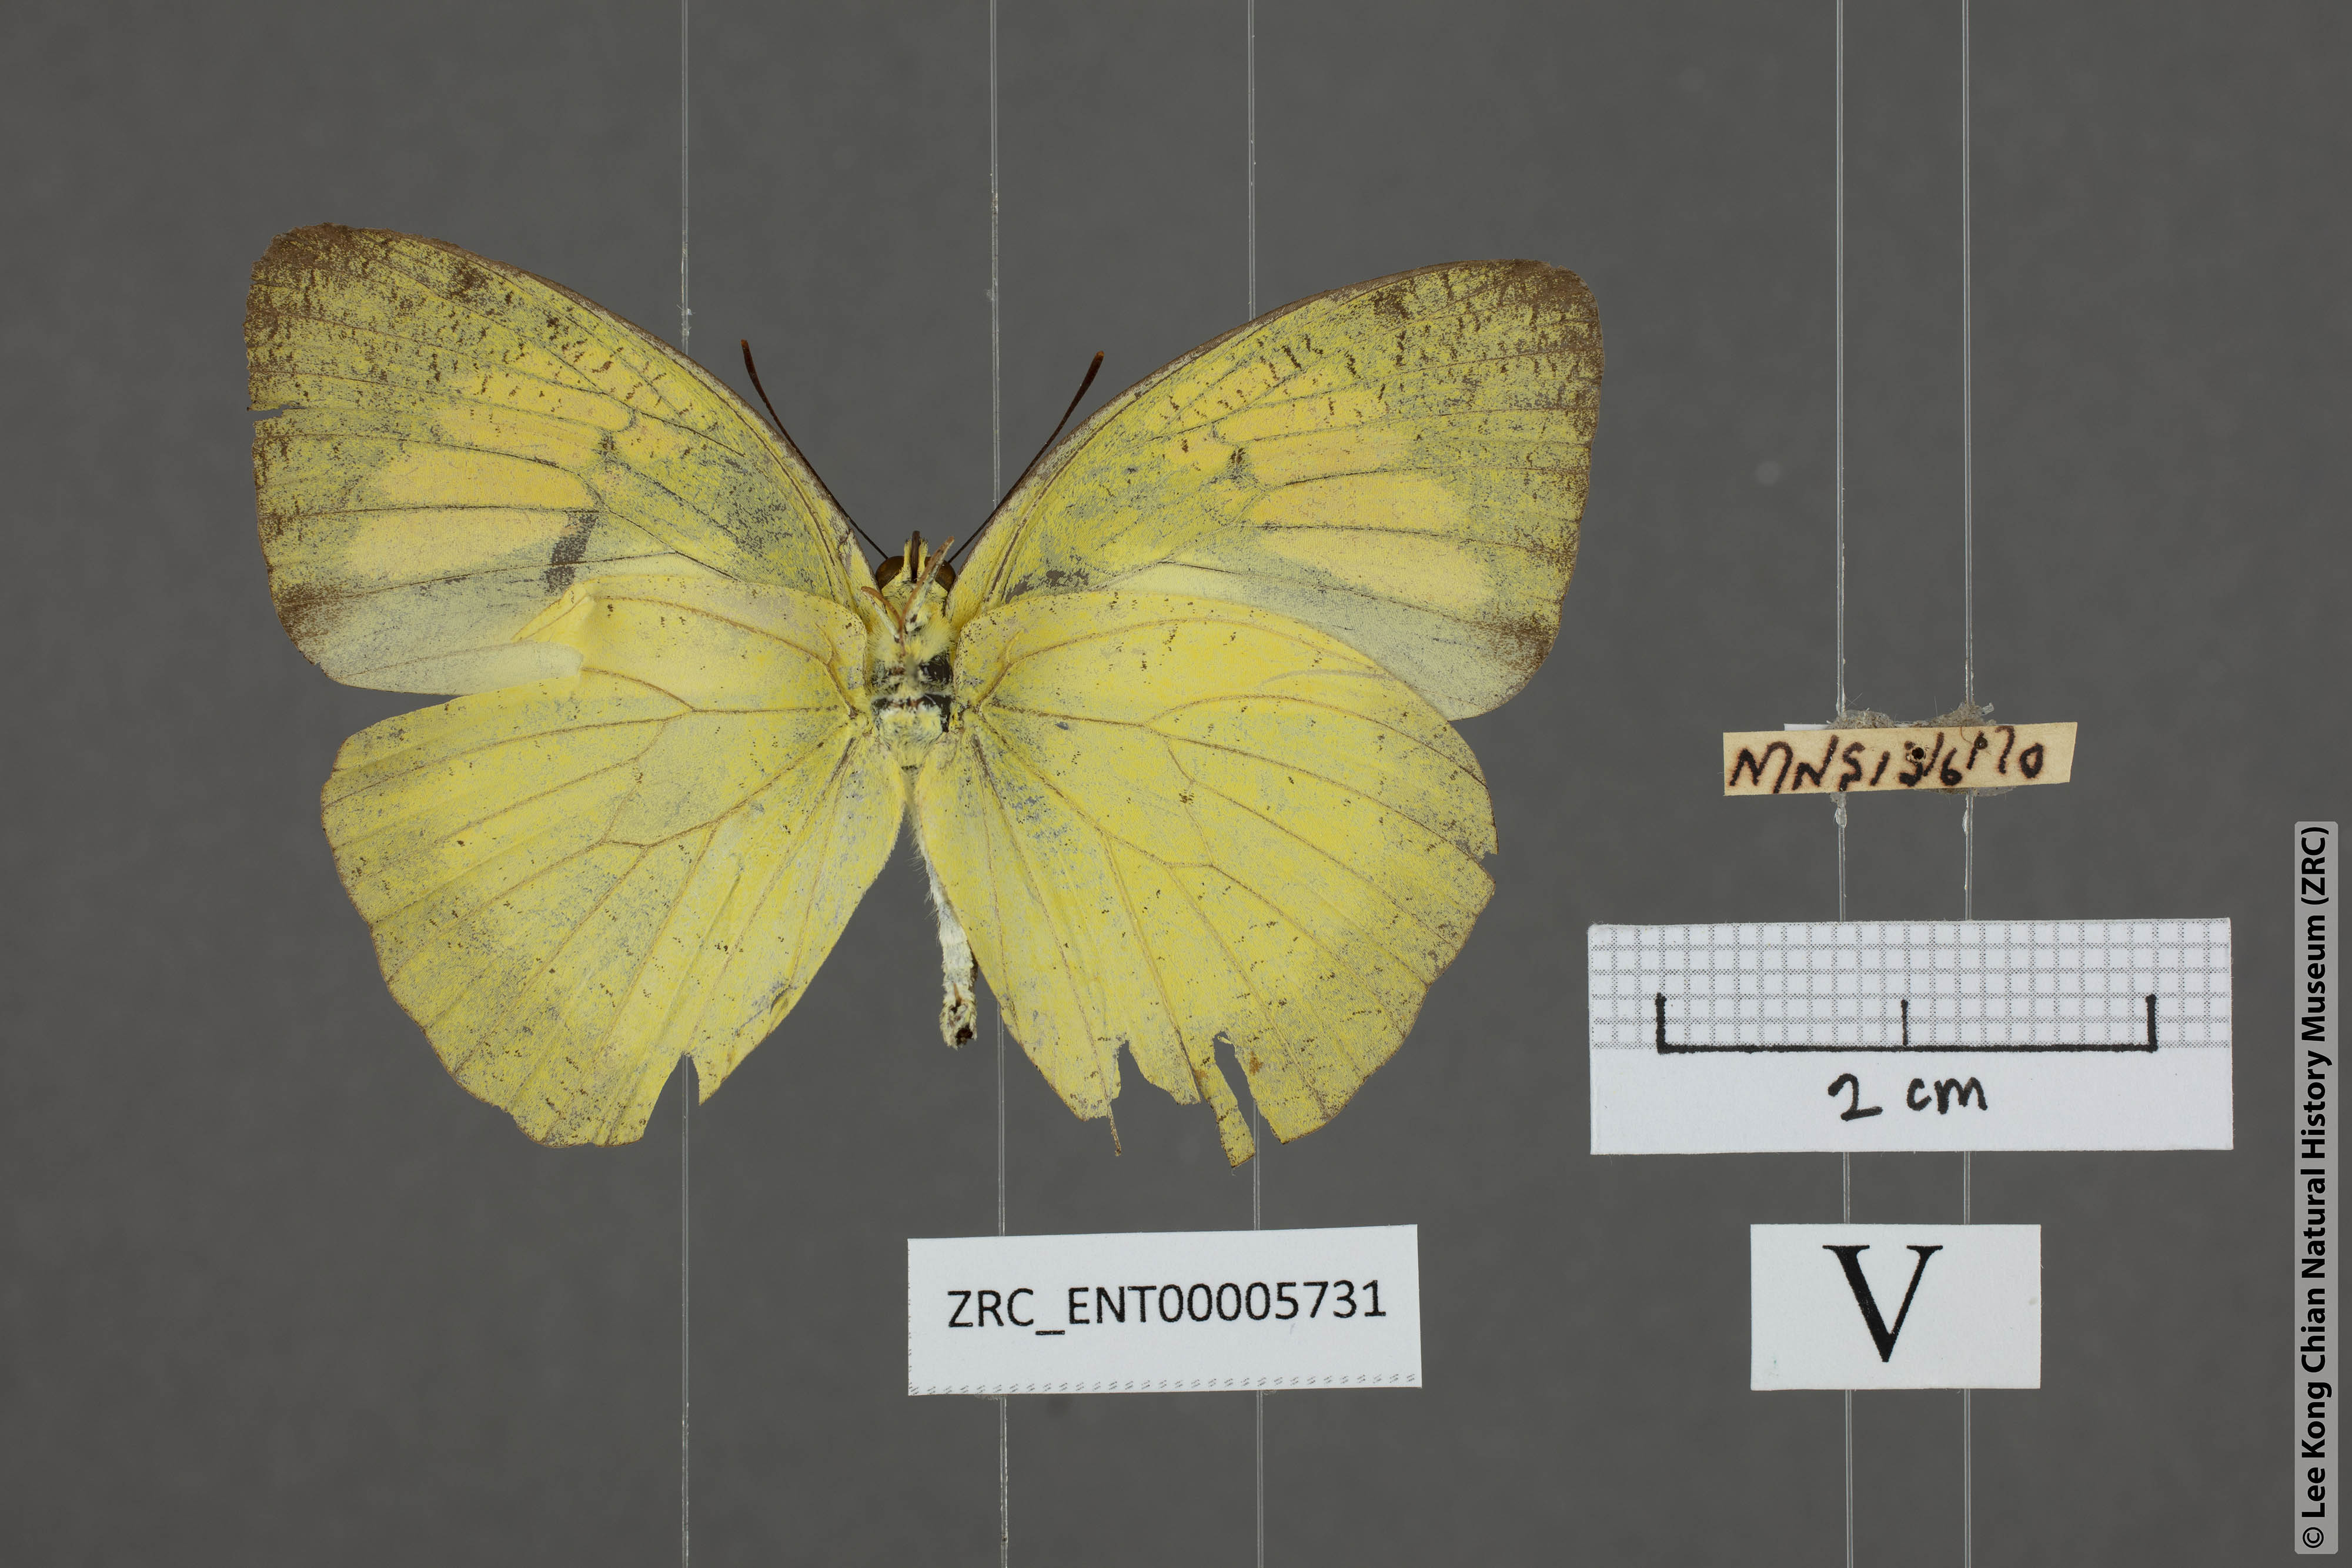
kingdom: Animalia
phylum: Arthropoda
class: Insecta
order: Lepidoptera
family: Pieridae
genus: Ixias
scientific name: Ixias pyrene
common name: Yellow orange tip
